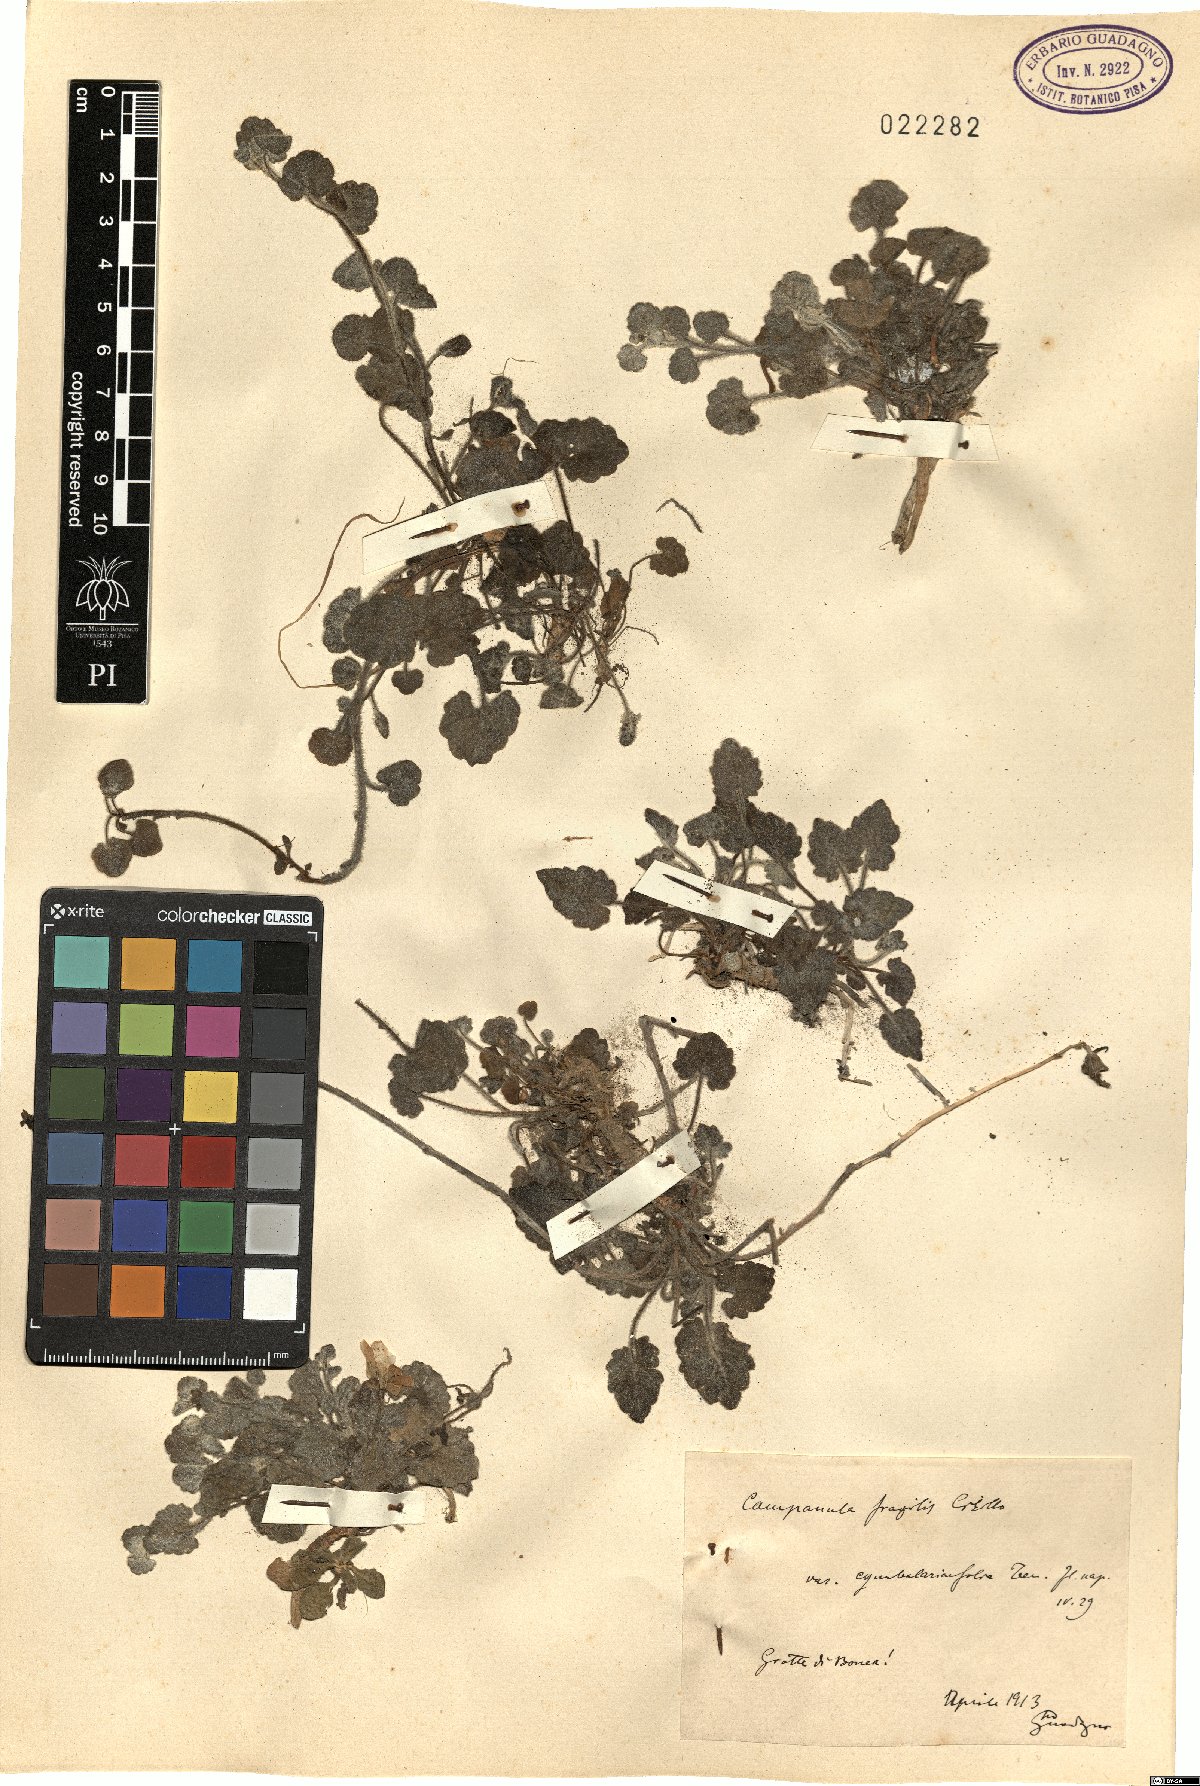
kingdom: Plantae
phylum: Tracheophyta
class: Magnoliopsida
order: Asterales
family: Campanulaceae
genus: Campanula
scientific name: Campanula fragilis
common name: Italian bellflower
